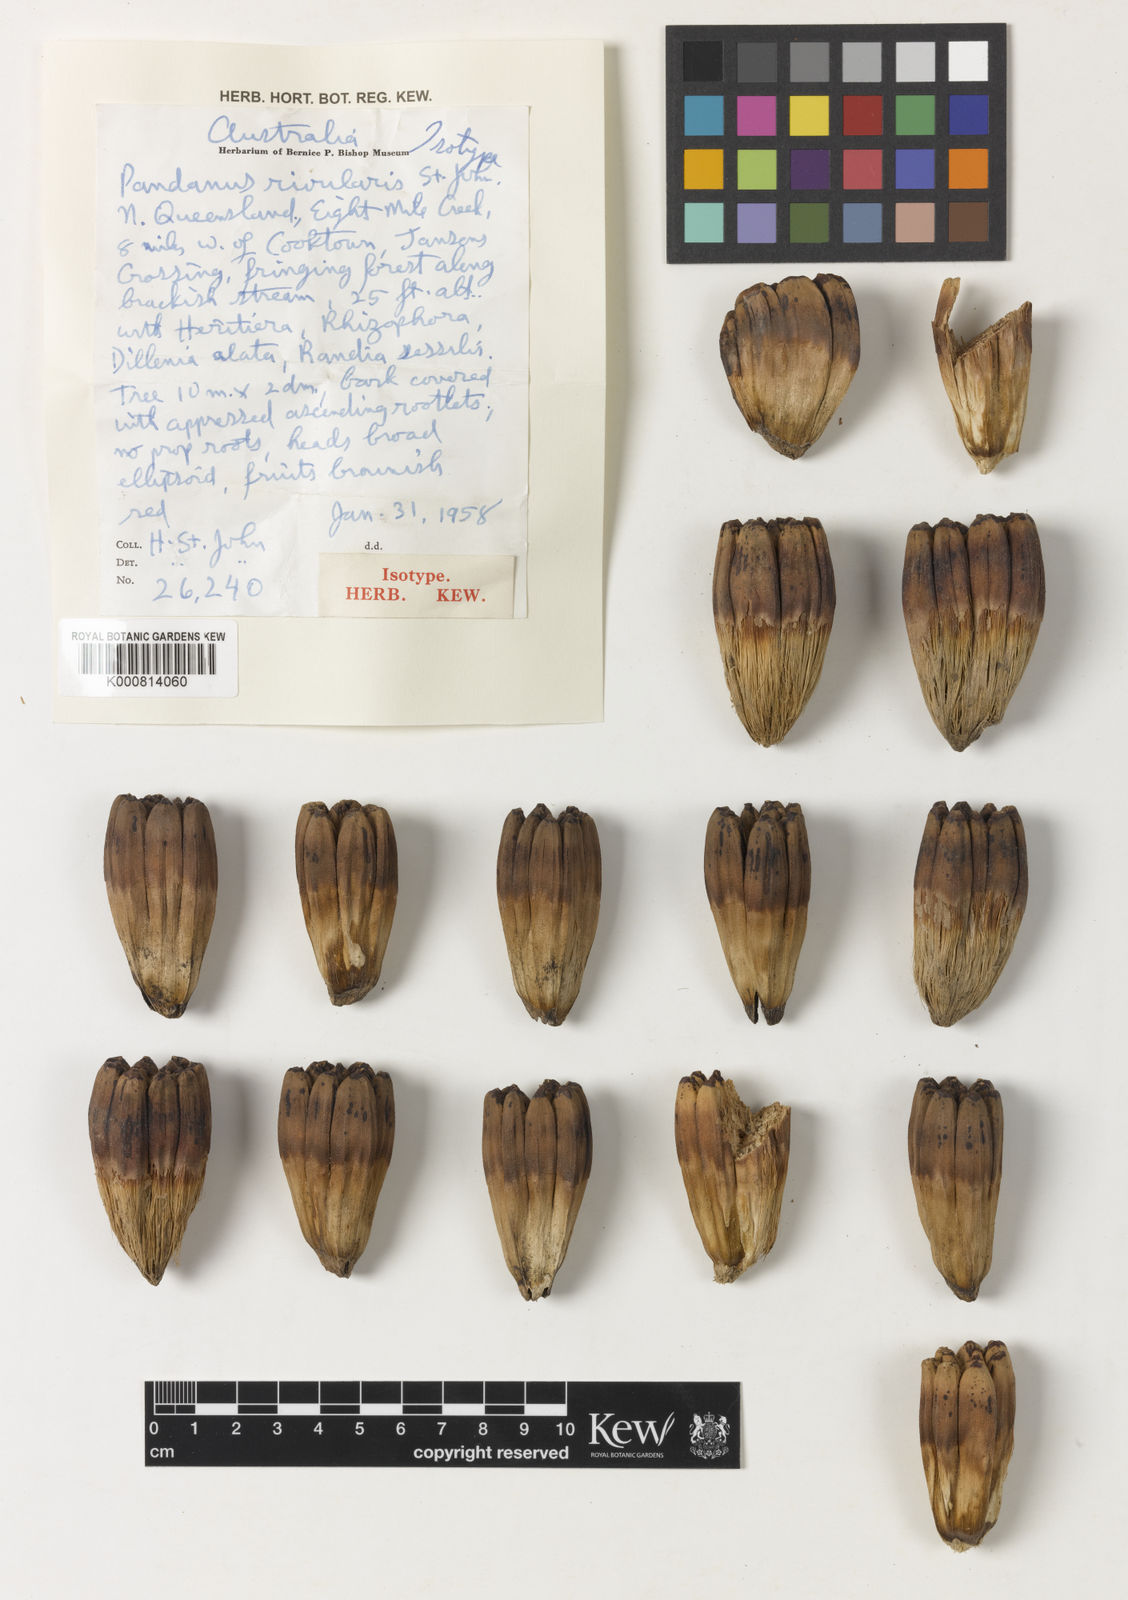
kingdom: Plantae
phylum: Tracheophyta
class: Liliopsida
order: Pandanales
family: Pandanaceae
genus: Pandanus
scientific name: Pandanus solms-laubachii
